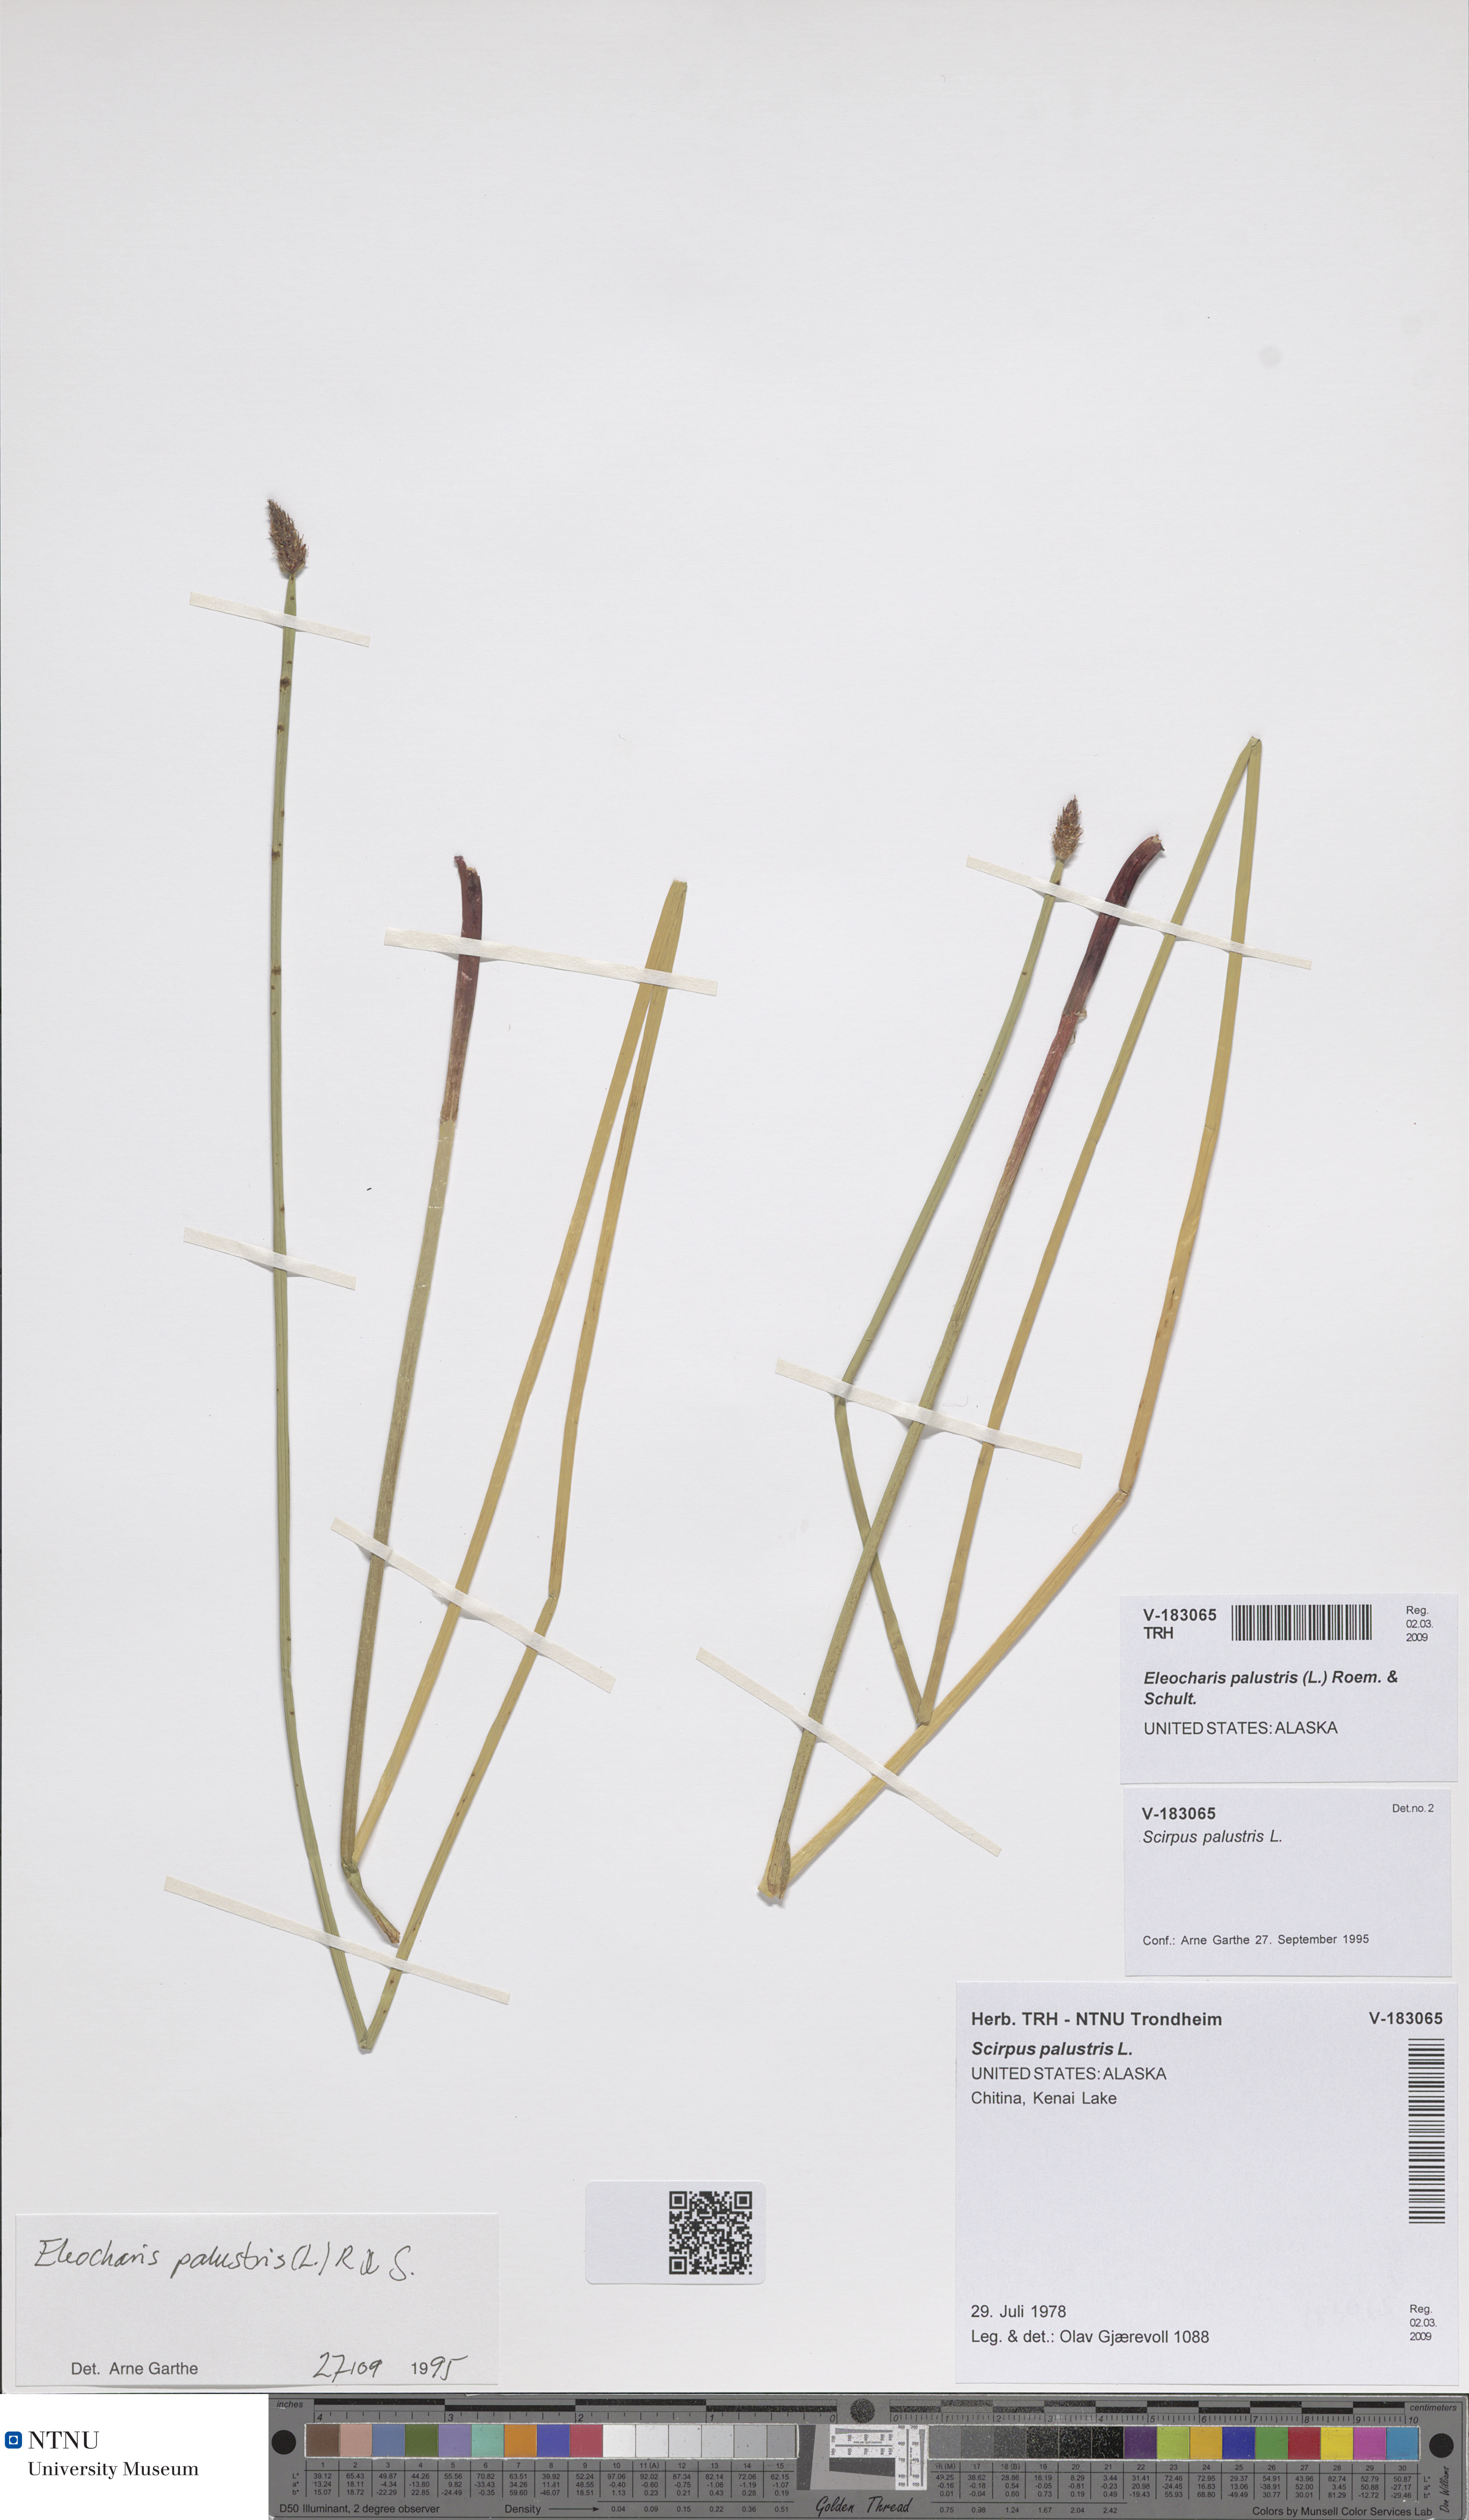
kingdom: Plantae
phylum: Tracheophyta
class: Liliopsida
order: Poales
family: Cyperaceae
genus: Eleocharis
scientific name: Eleocharis palustris
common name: Common spike-rush
